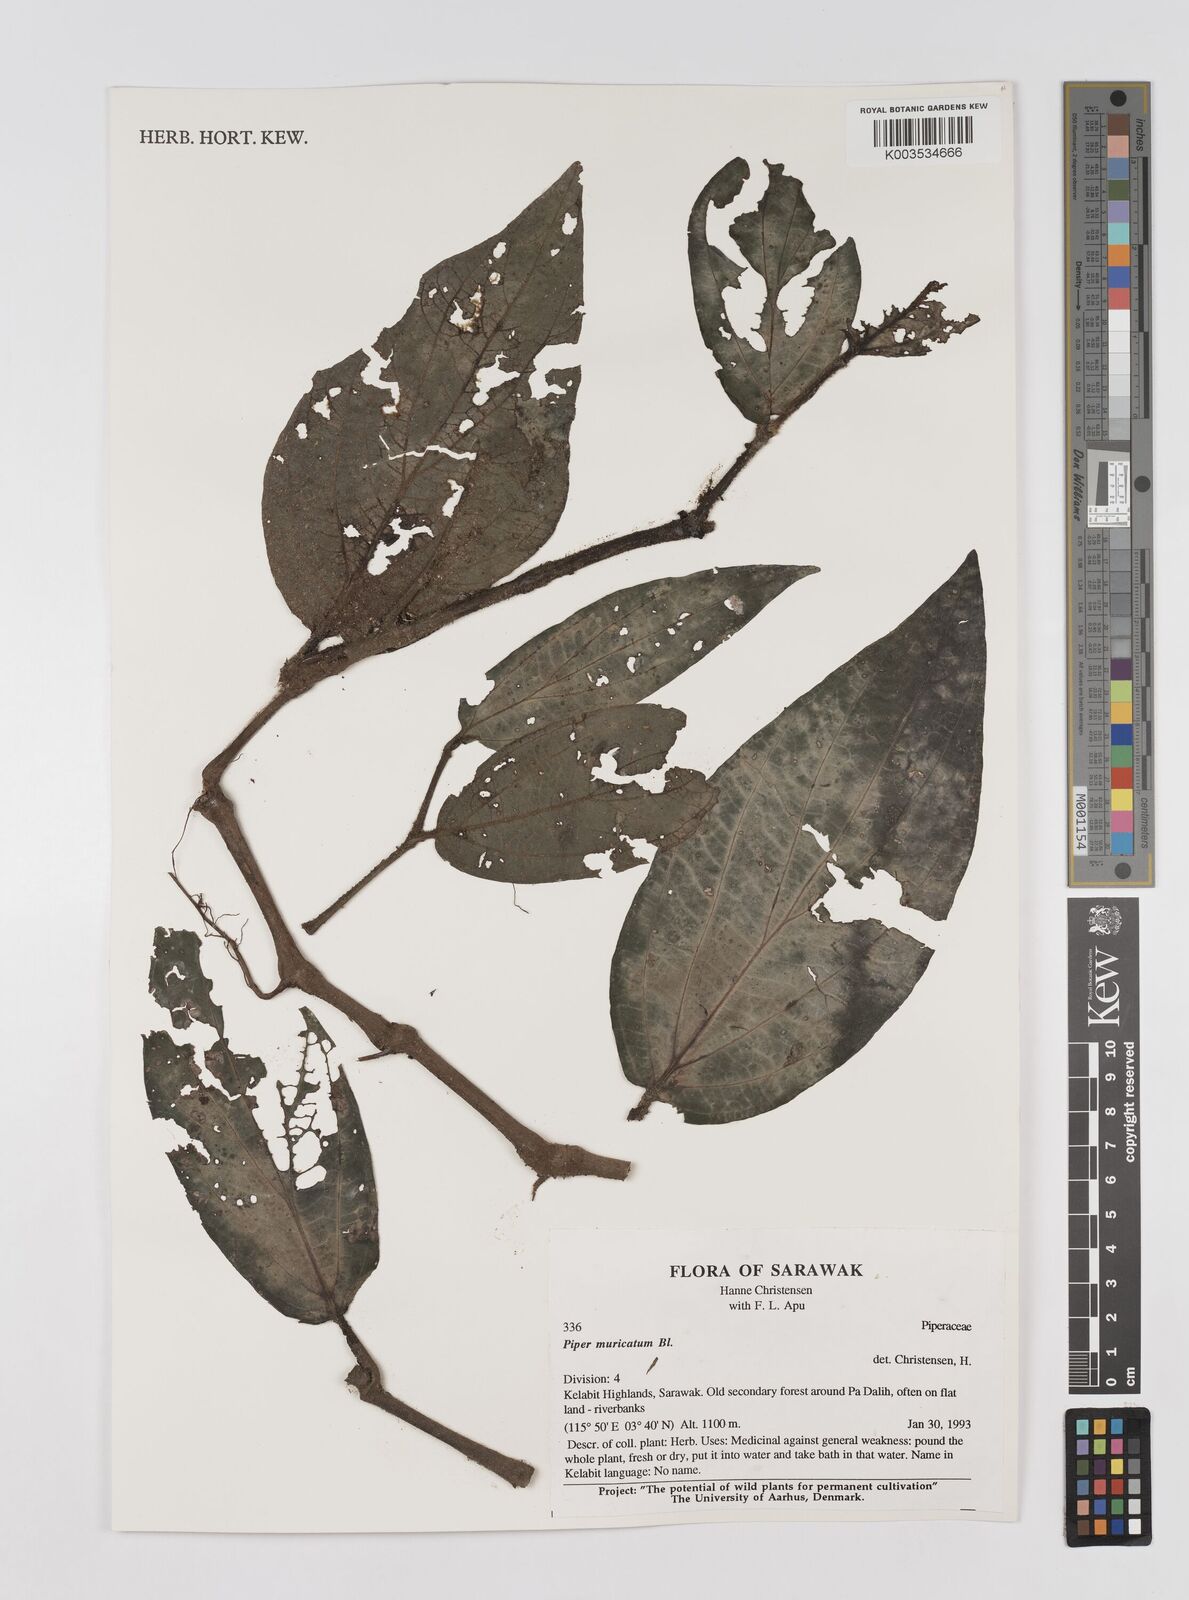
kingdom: Plantae
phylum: Tracheophyta
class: Magnoliopsida
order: Piperales
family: Piperaceae
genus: Piper
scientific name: Piper muricatum
